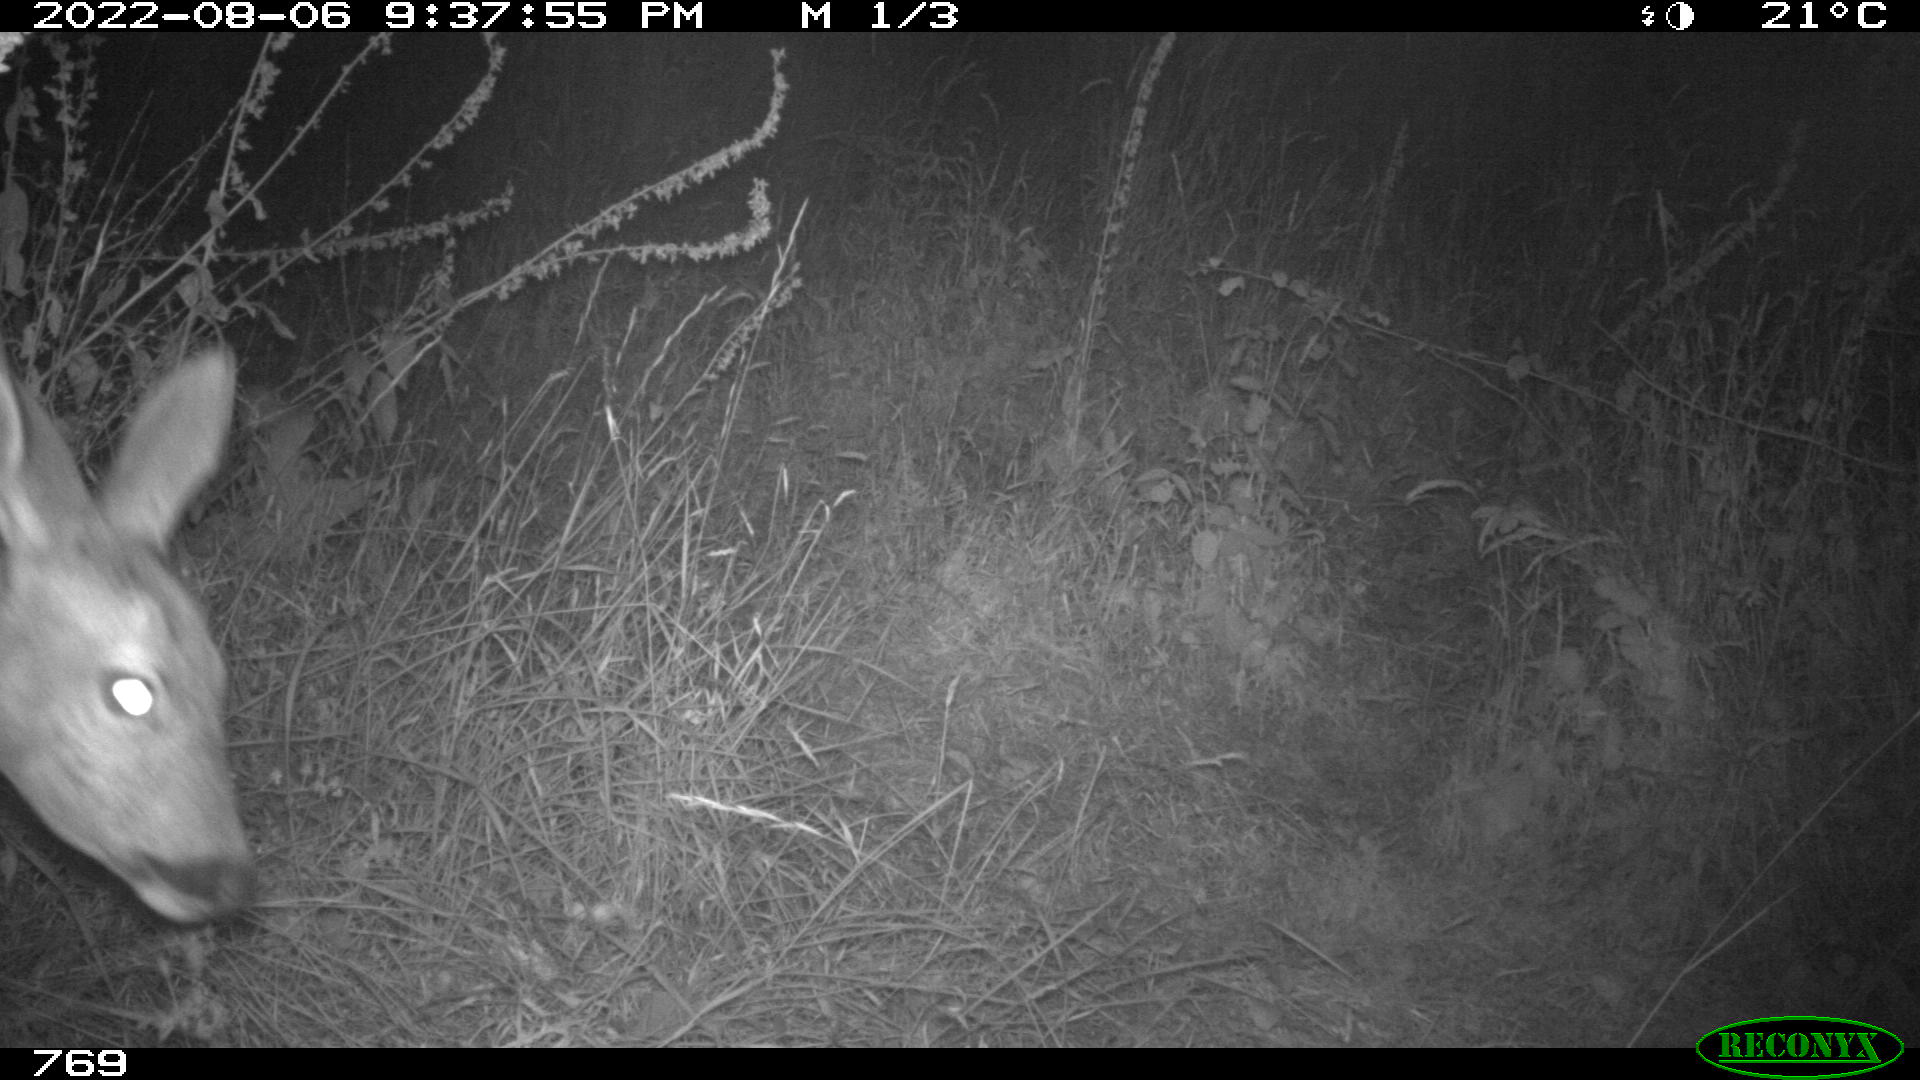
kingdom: Animalia
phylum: Chordata
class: Mammalia
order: Artiodactyla
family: Cervidae
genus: Capreolus
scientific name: Capreolus capreolus
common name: Western roe deer
